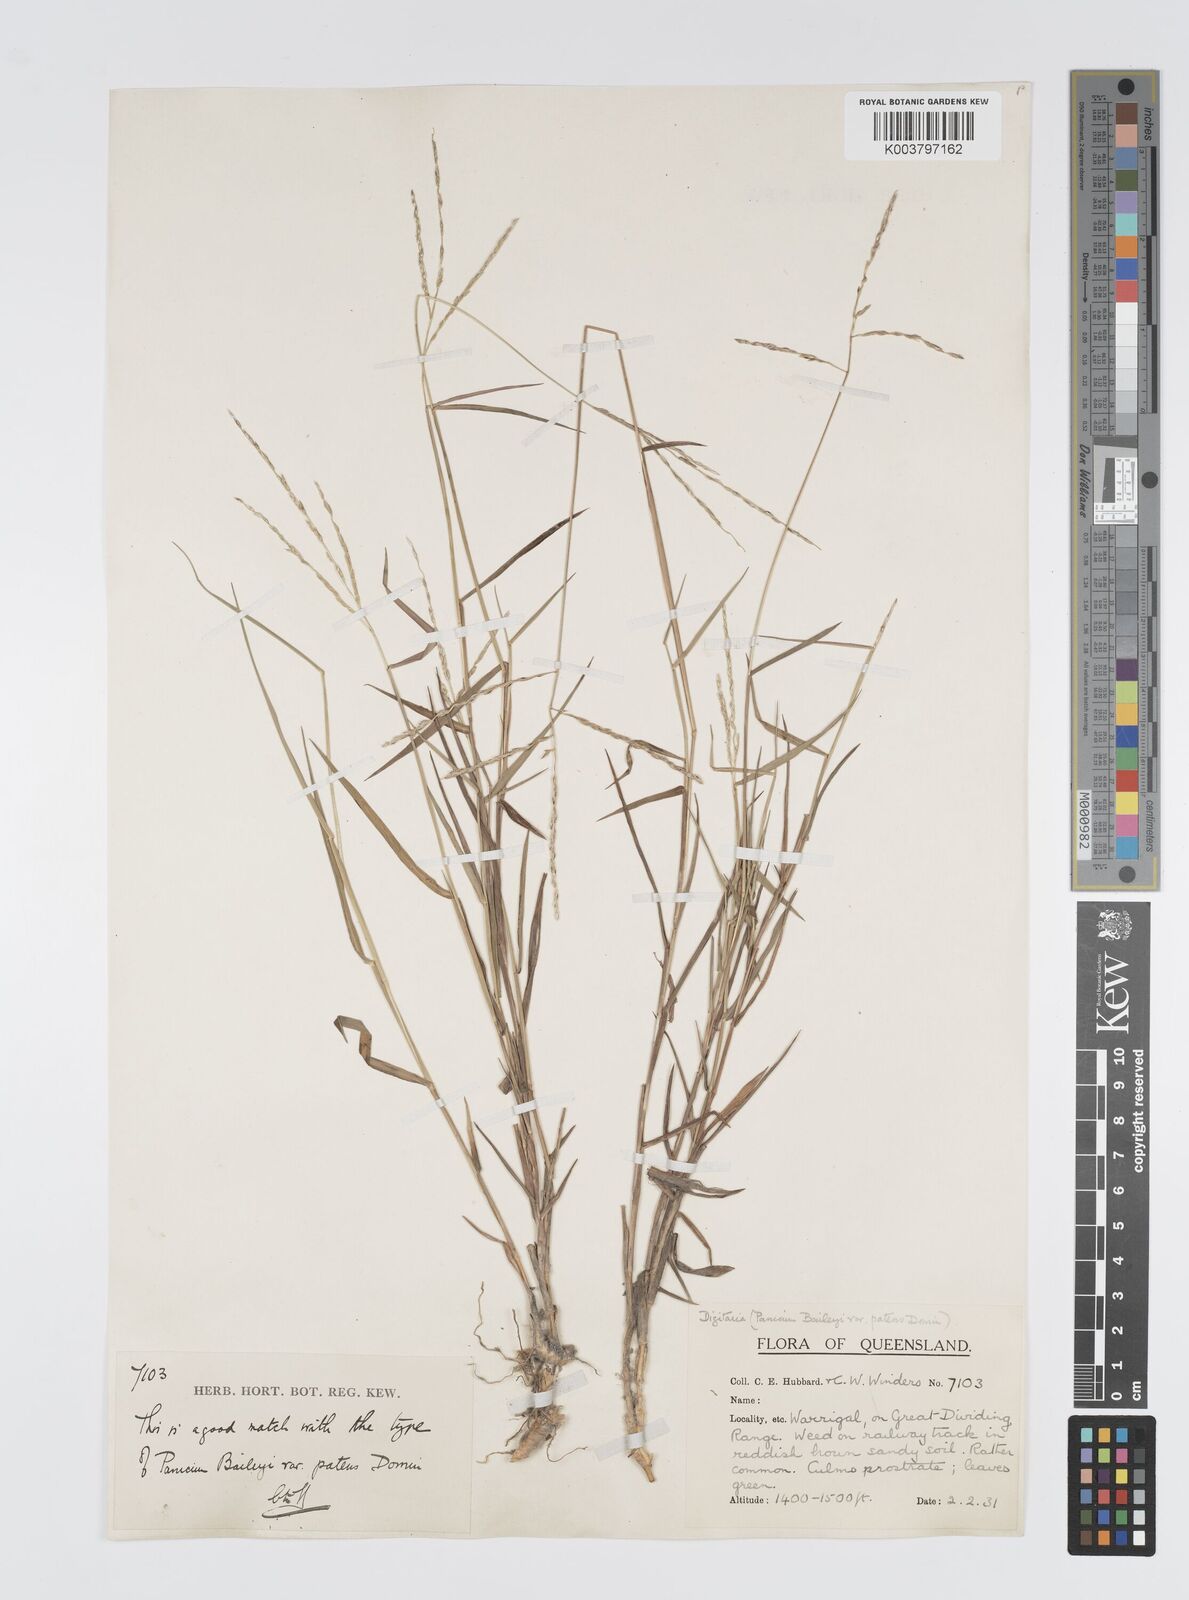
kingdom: Plantae
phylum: Tracheophyta
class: Liliopsida
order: Poales
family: Poaceae
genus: Digitaria
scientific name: Digitaria spec
